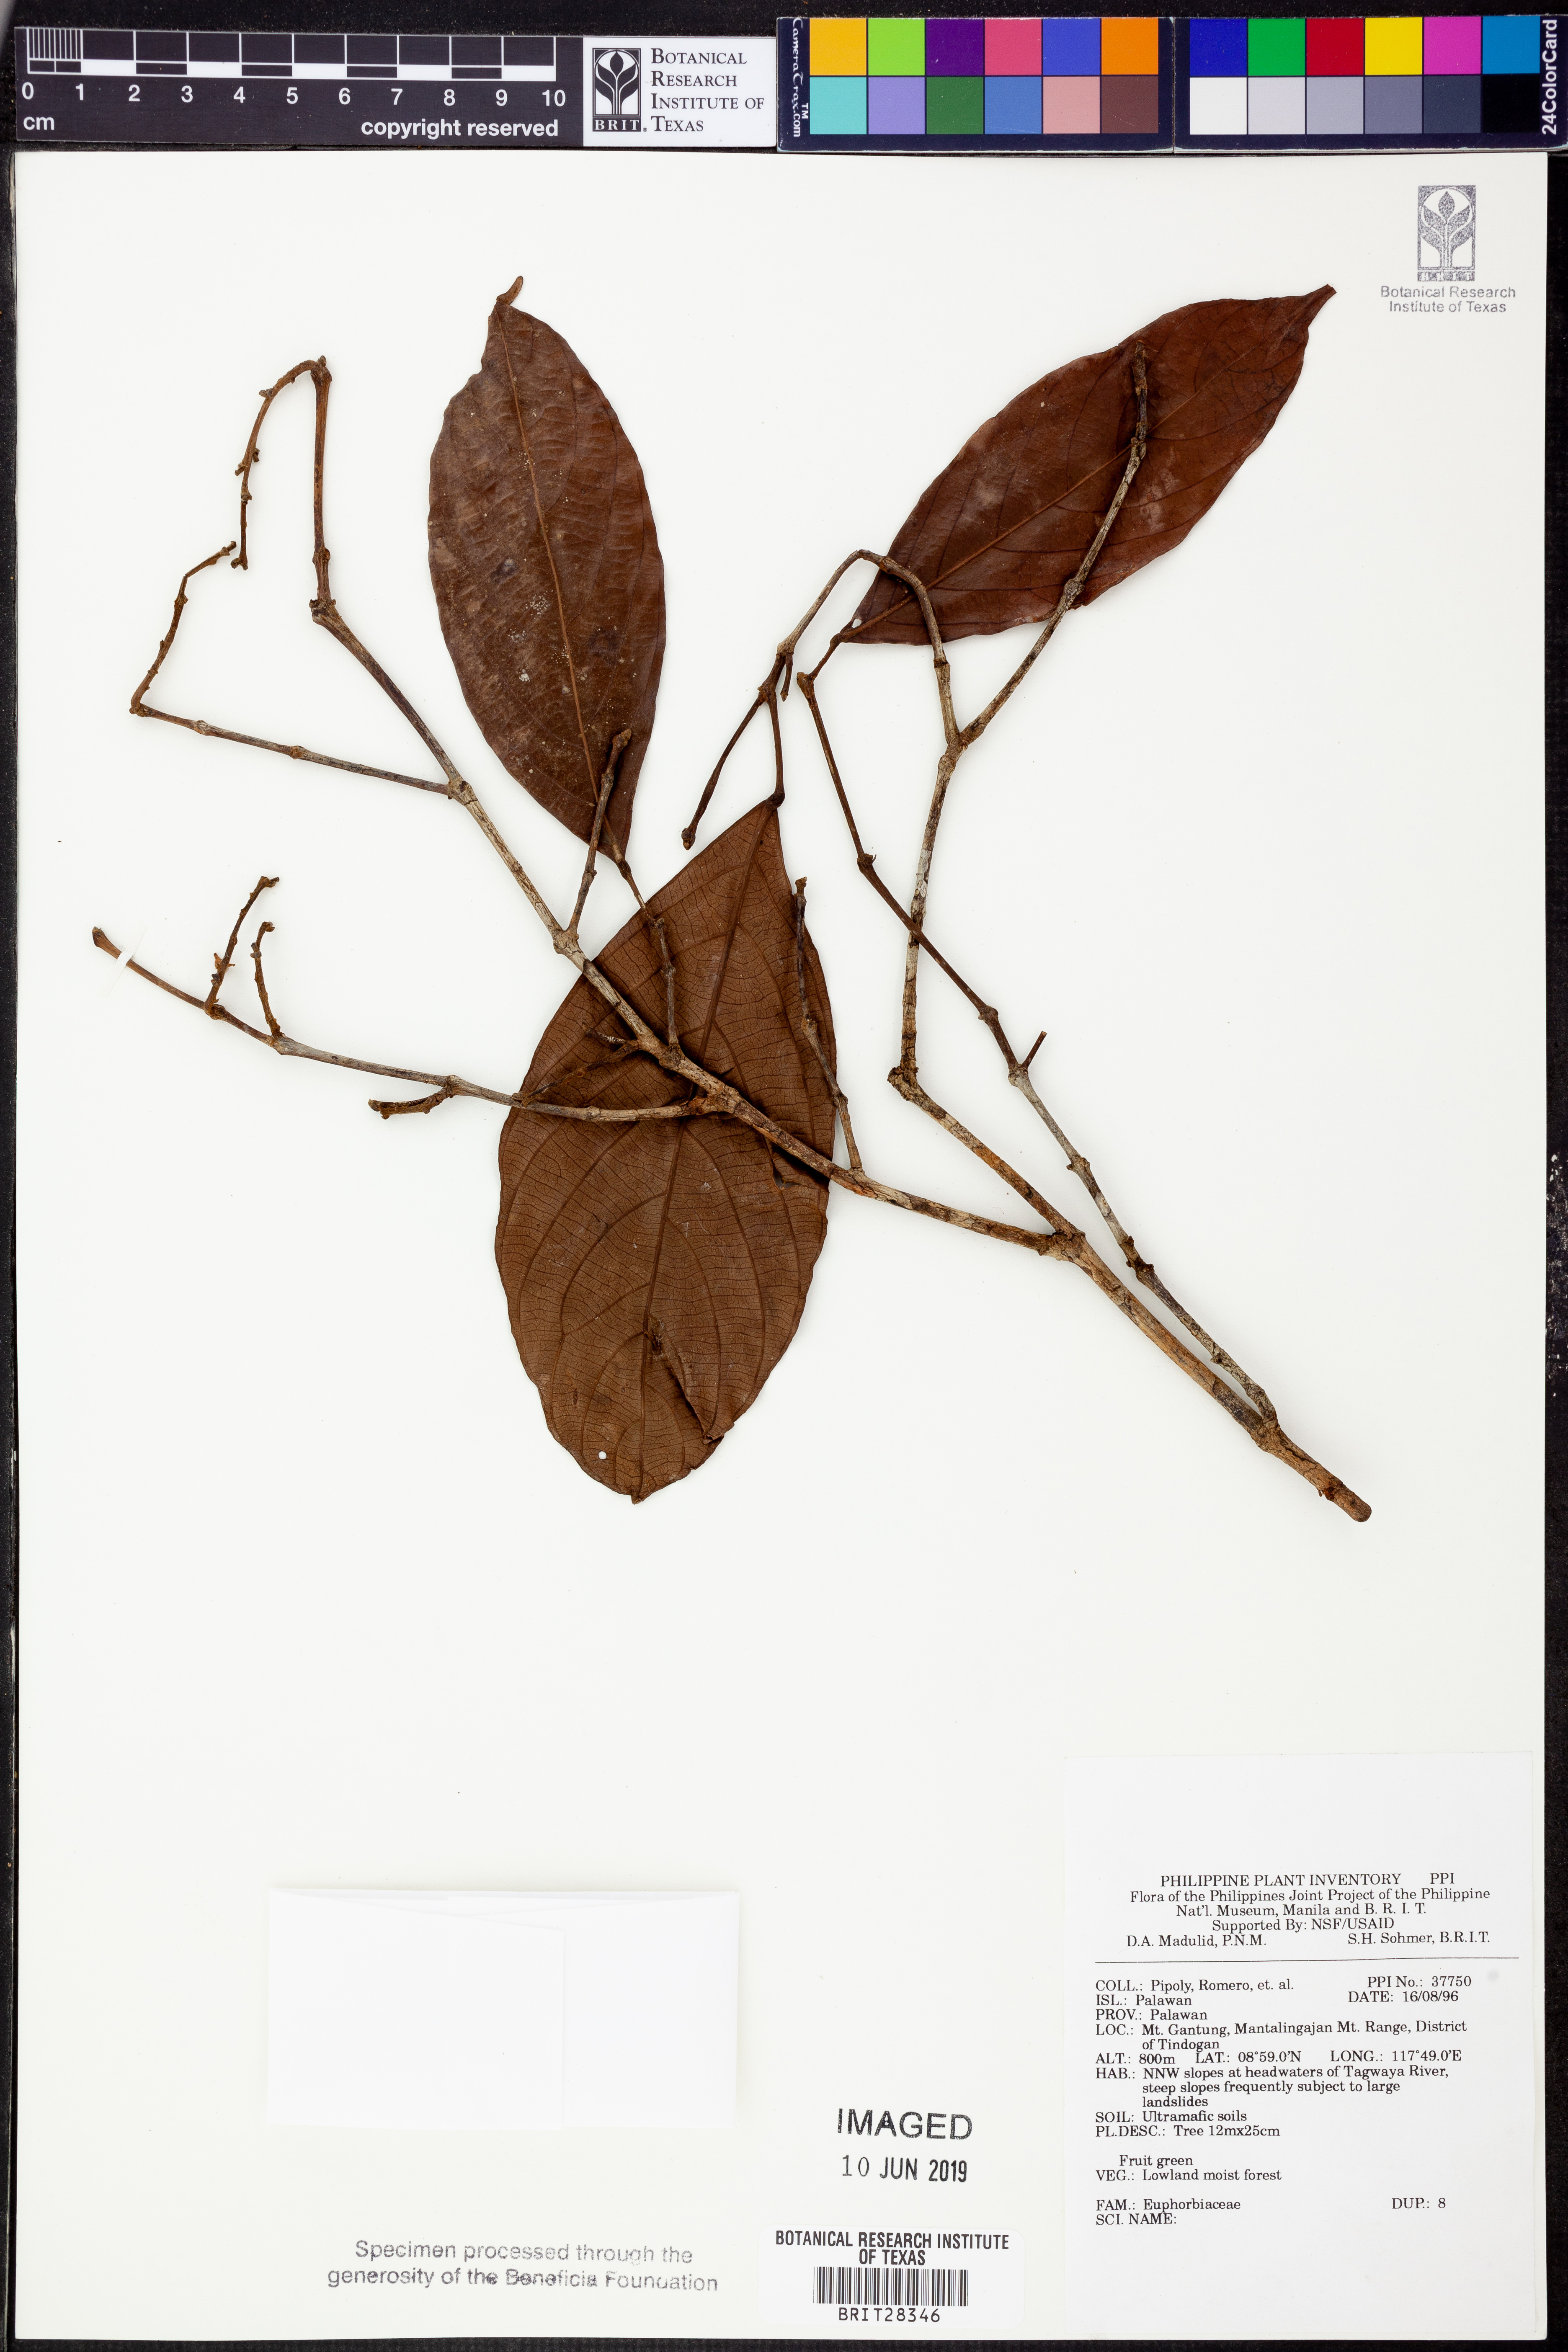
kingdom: Plantae
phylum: Tracheophyta
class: Magnoliopsida
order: Malpighiales
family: Euphorbiaceae
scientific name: Euphorbiaceae
